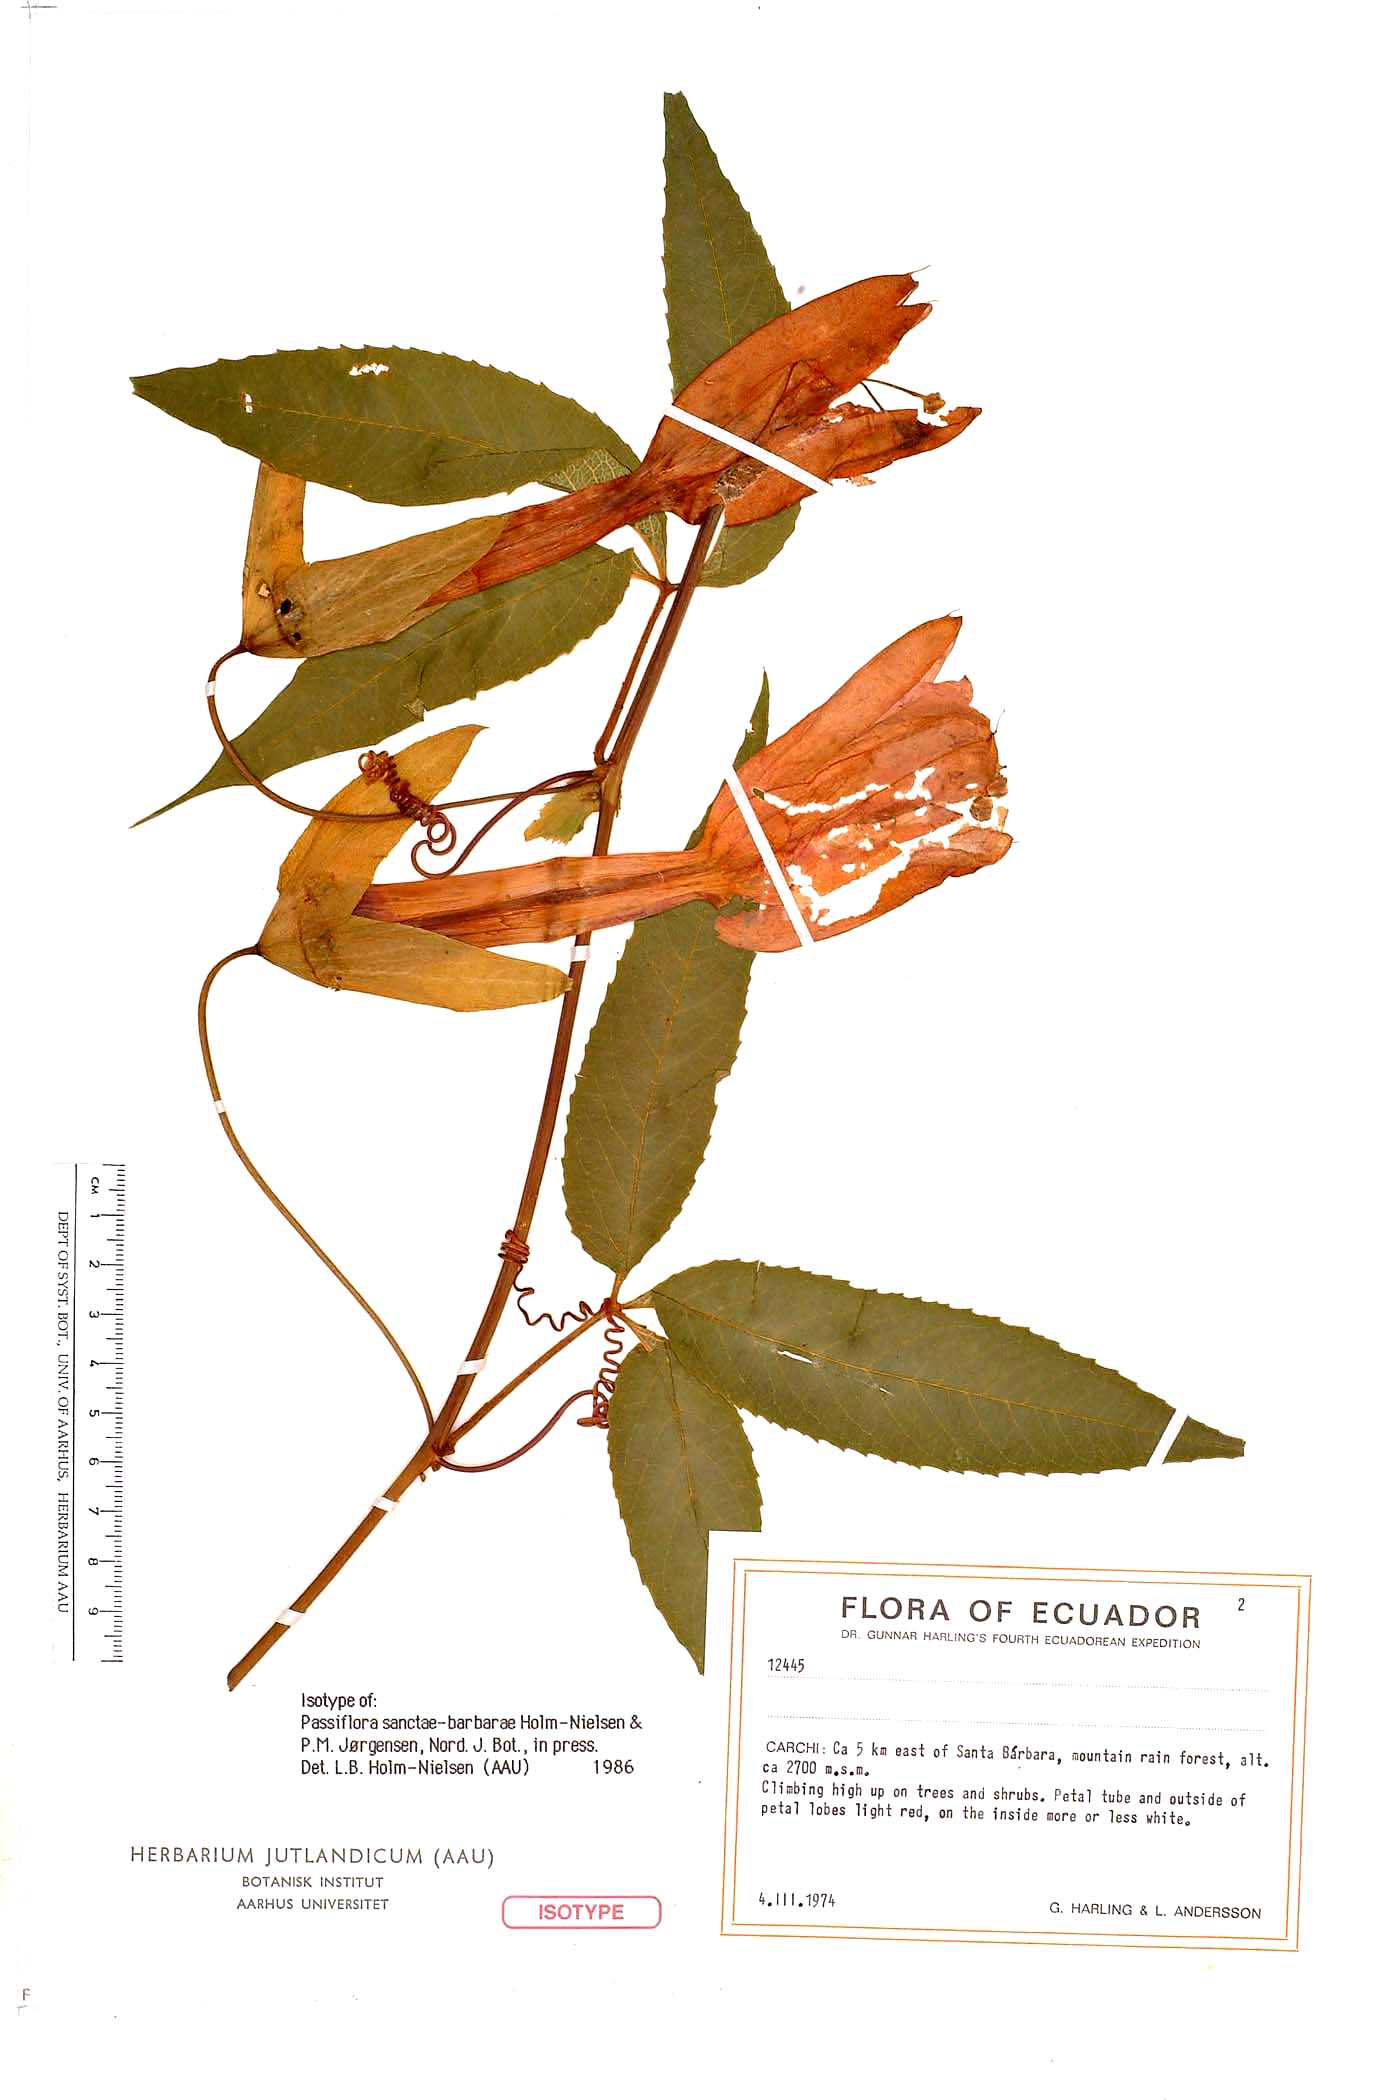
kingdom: Plantae
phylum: Tracheophyta
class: Magnoliopsida
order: Malpighiales
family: Passifloraceae
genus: Passiflora
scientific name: Passiflora sanctae-barbarae
